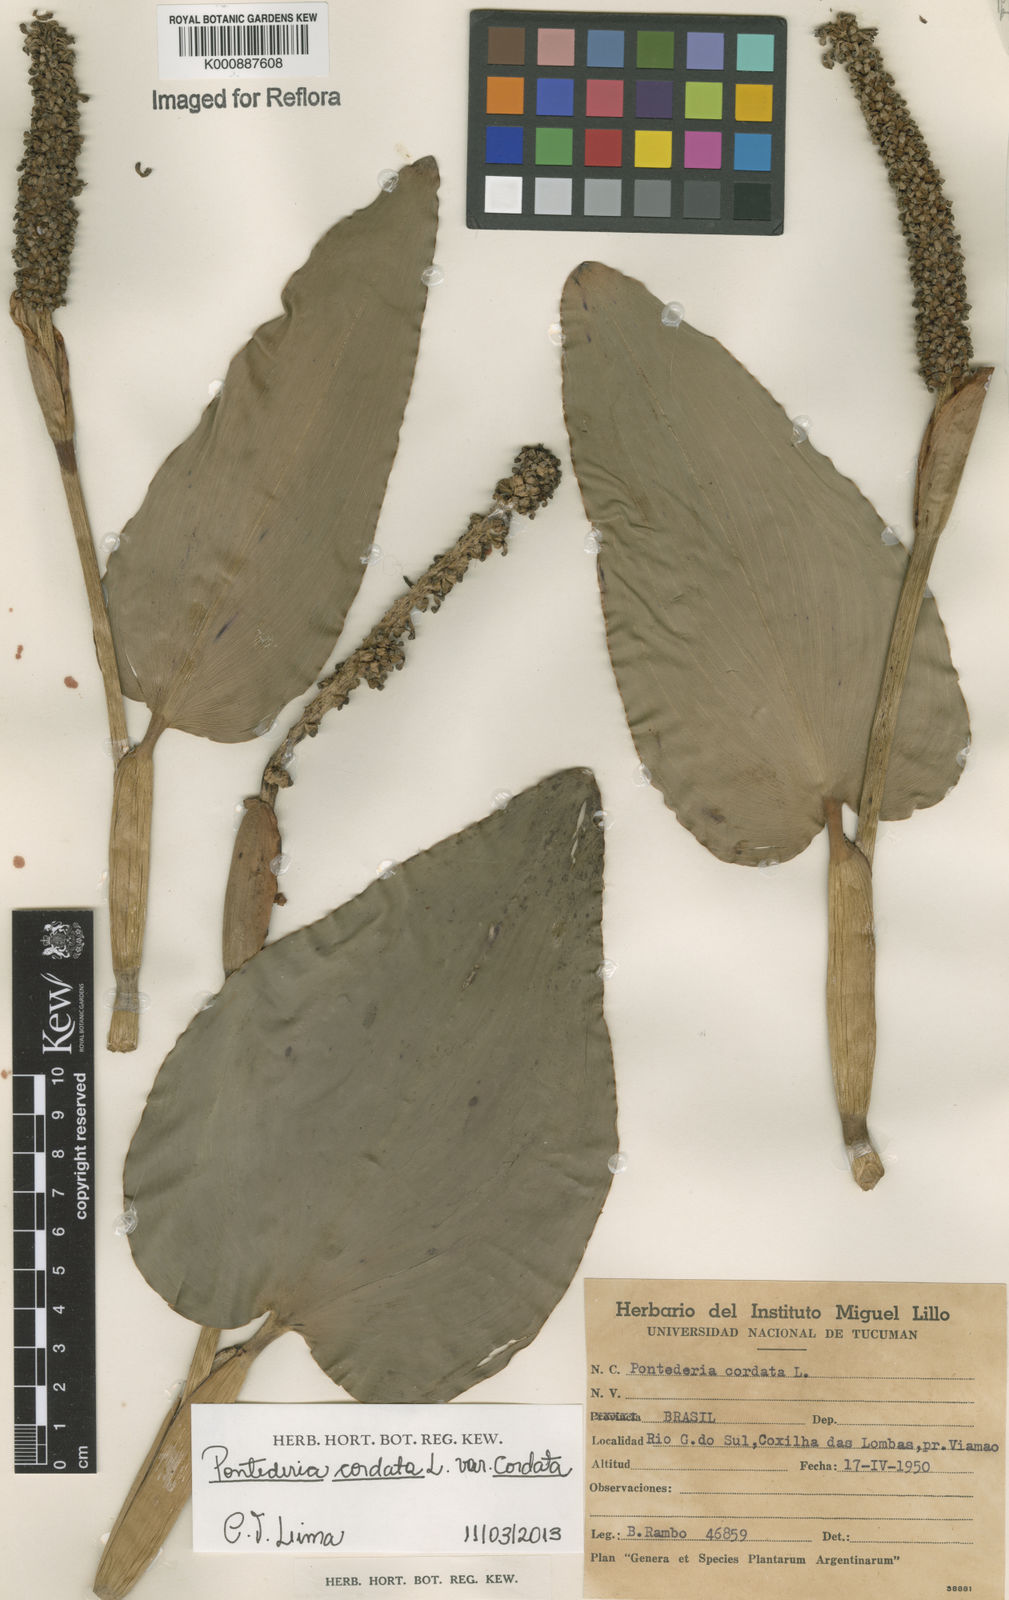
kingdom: Plantae
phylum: Tracheophyta
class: Liliopsida
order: Commelinales
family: Pontederiaceae
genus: Pontederia
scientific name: Pontederia cordata
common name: Pickerelweed
